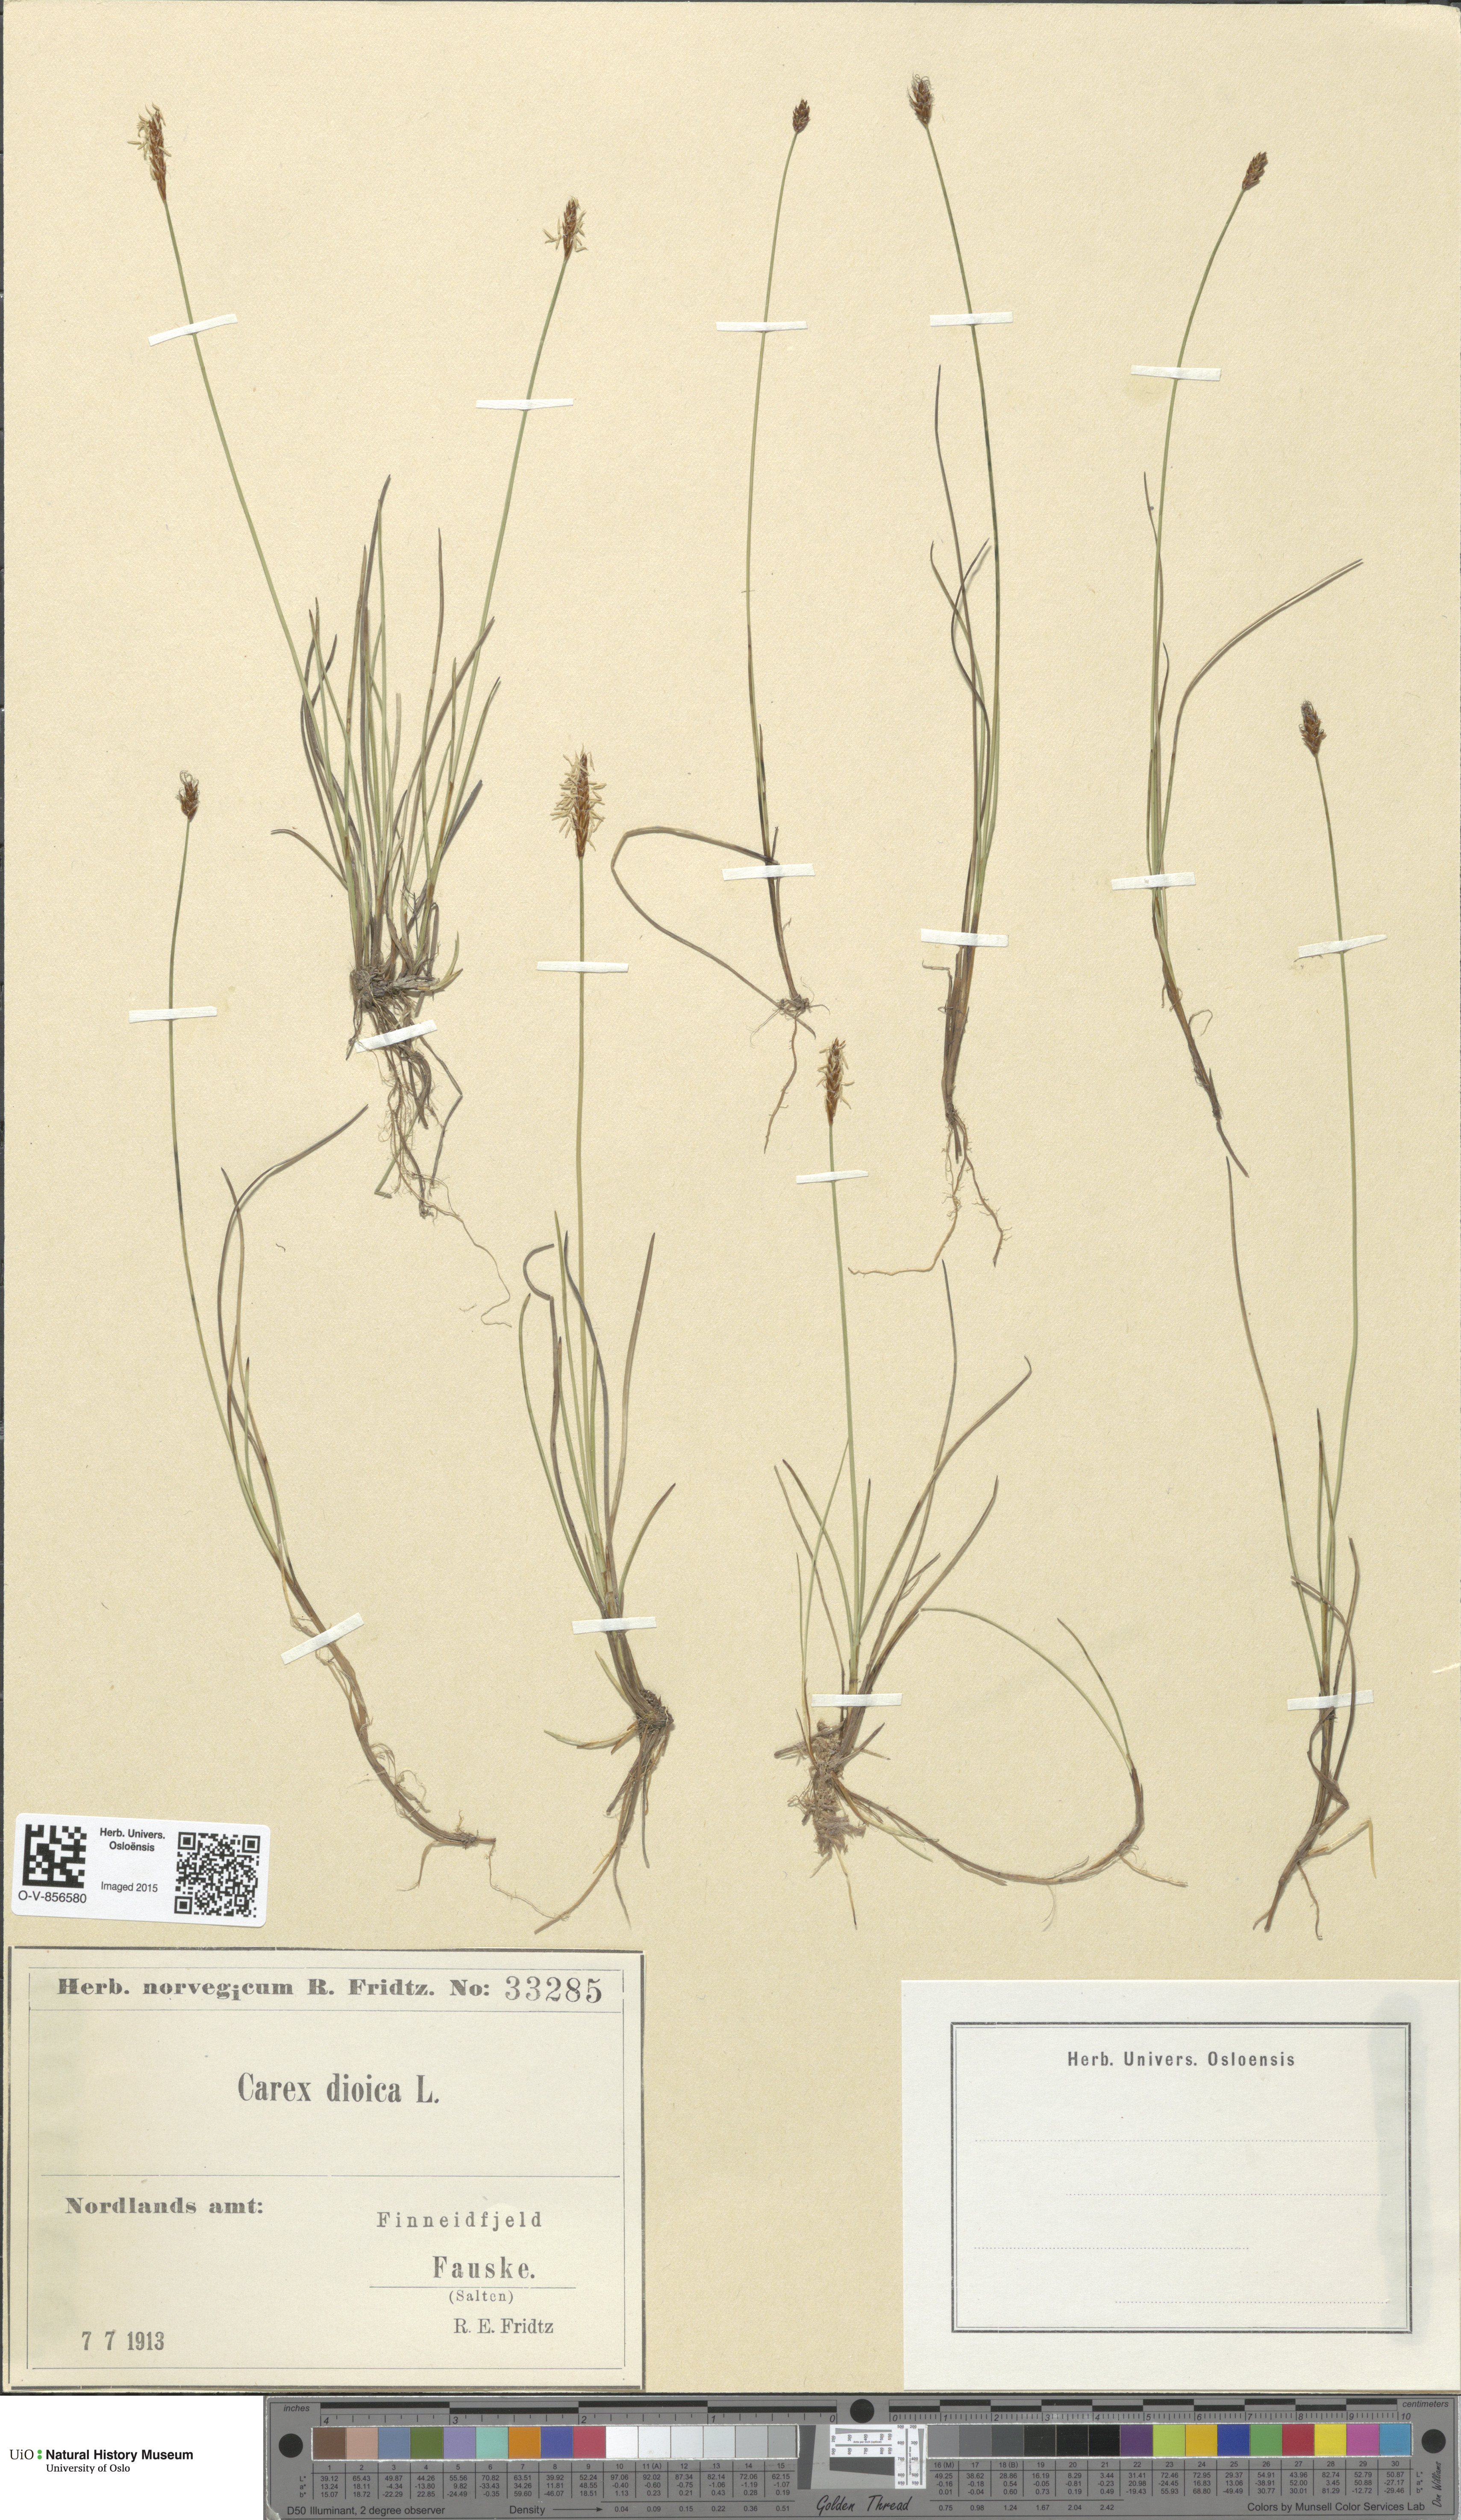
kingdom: Plantae
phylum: Tracheophyta
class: Liliopsida
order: Poales
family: Cyperaceae
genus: Carex
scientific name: Carex dioica
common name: Dioecious sedge
